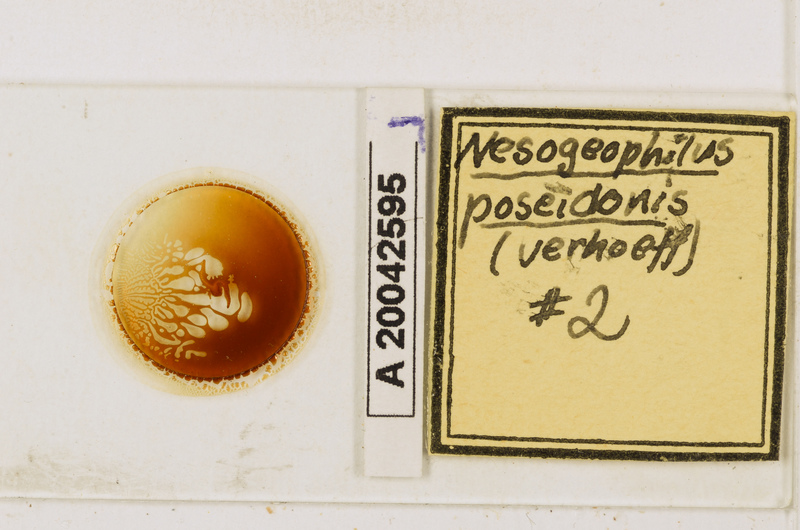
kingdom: Animalia
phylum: Arthropoda
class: Chilopoda
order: Geophilomorpha
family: Geophilidae
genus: Tuoba
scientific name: Tuoba
